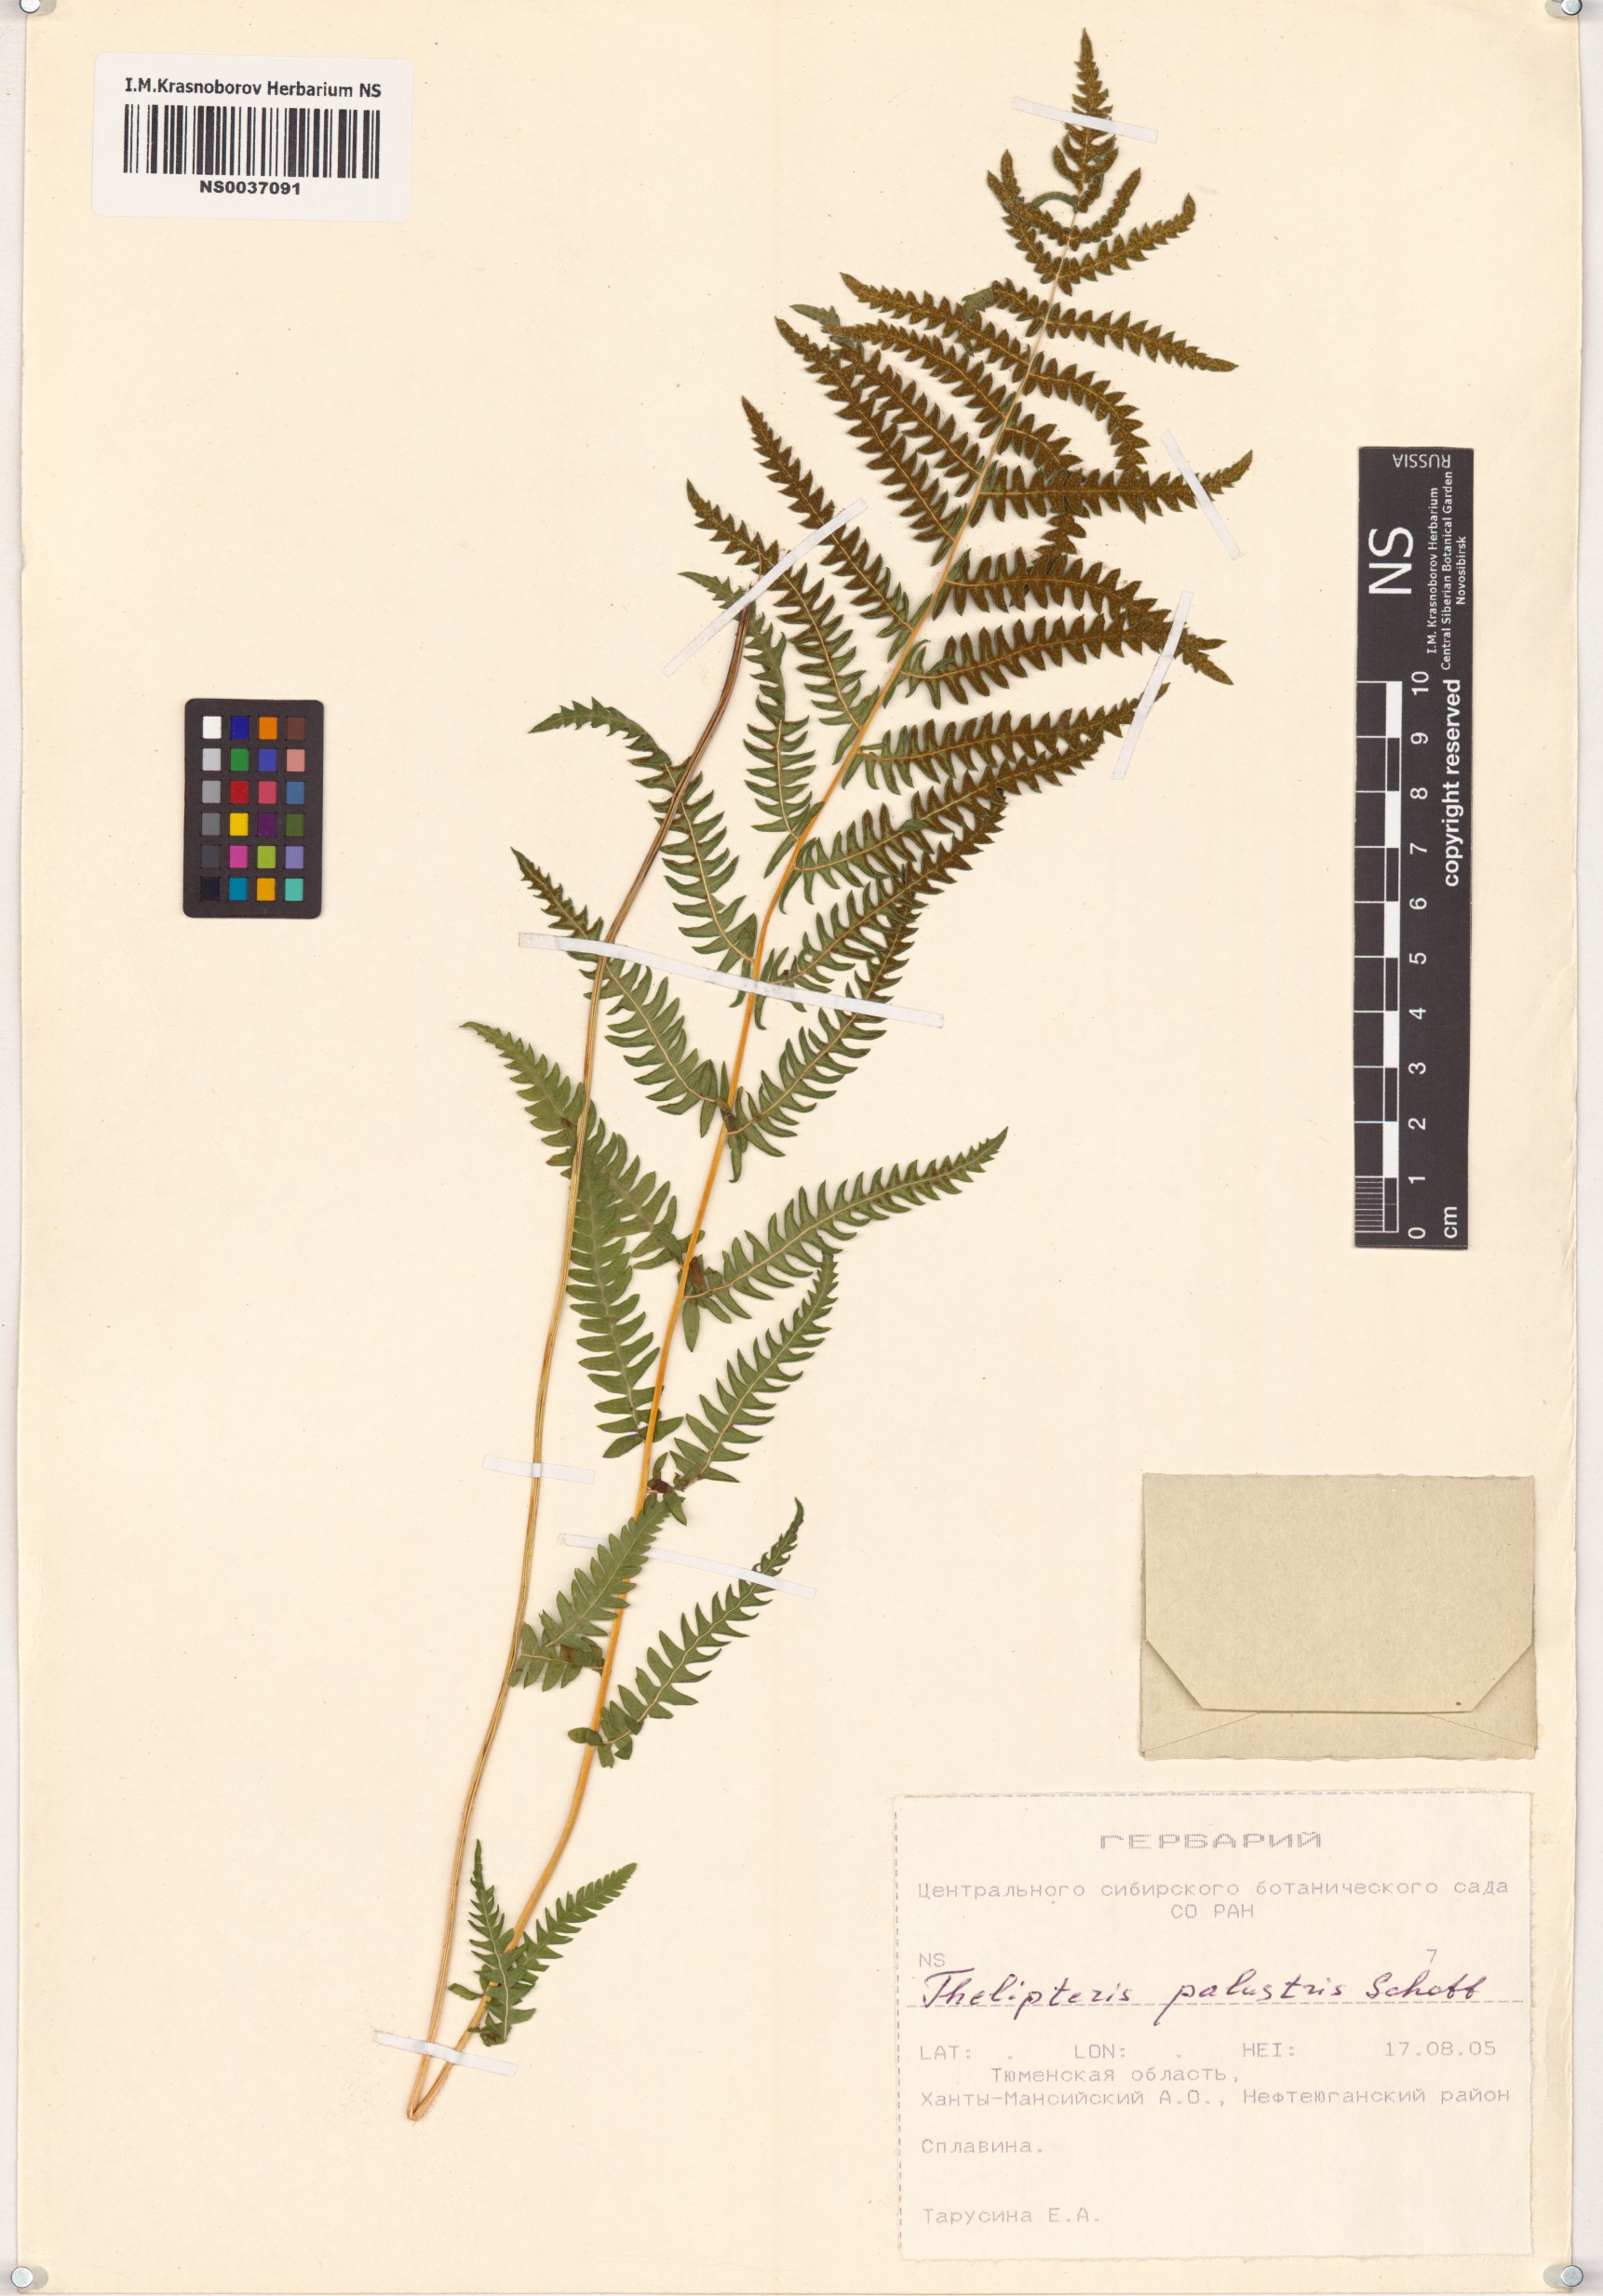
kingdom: Plantae
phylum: Tracheophyta
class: Polypodiopsida
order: Polypodiales
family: Thelypteridaceae
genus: Thelypteris
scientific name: Thelypteris palustris
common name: Marsh fern
